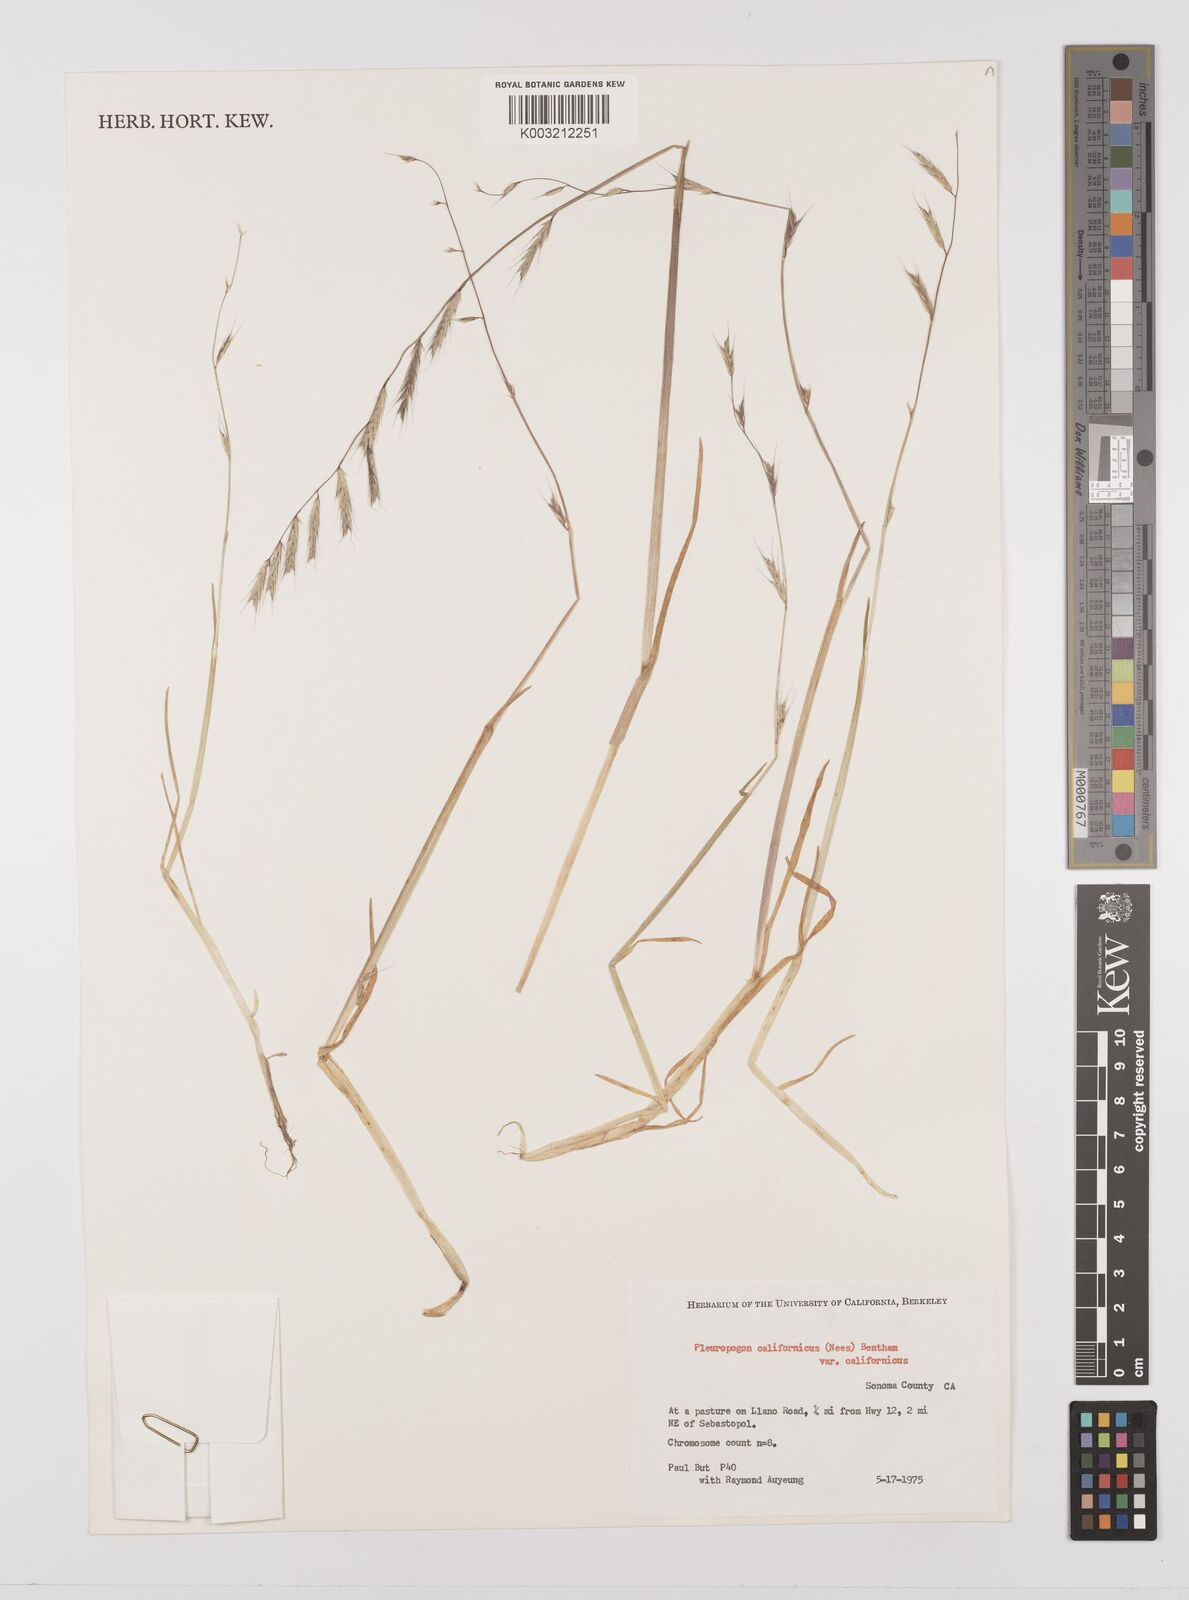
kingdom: Plantae
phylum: Tracheophyta
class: Liliopsida
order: Poales
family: Poaceae
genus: Pleuropogon
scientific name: Pleuropogon californicus
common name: California semaphore grass
